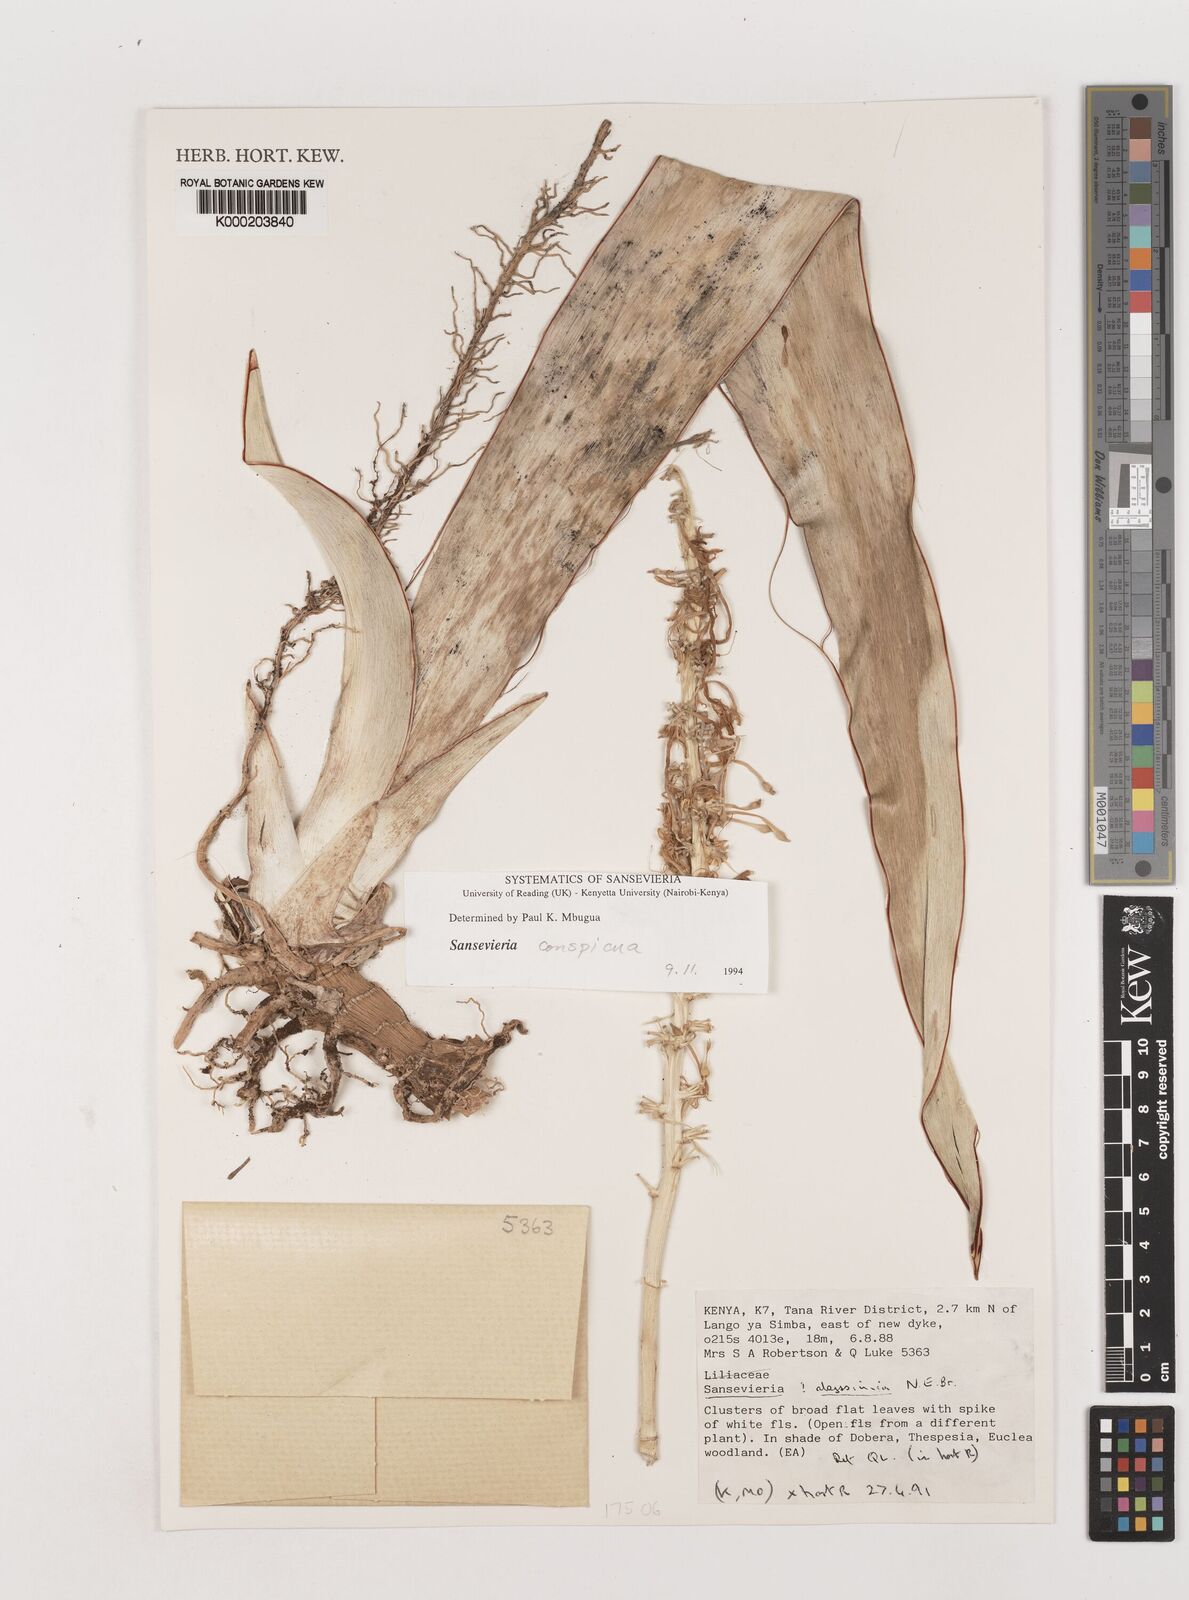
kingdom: Plantae
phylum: Tracheophyta
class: Liliopsida
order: Asparagales
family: Asparagaceae
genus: Dracaena
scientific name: Dracaena forskaliana
